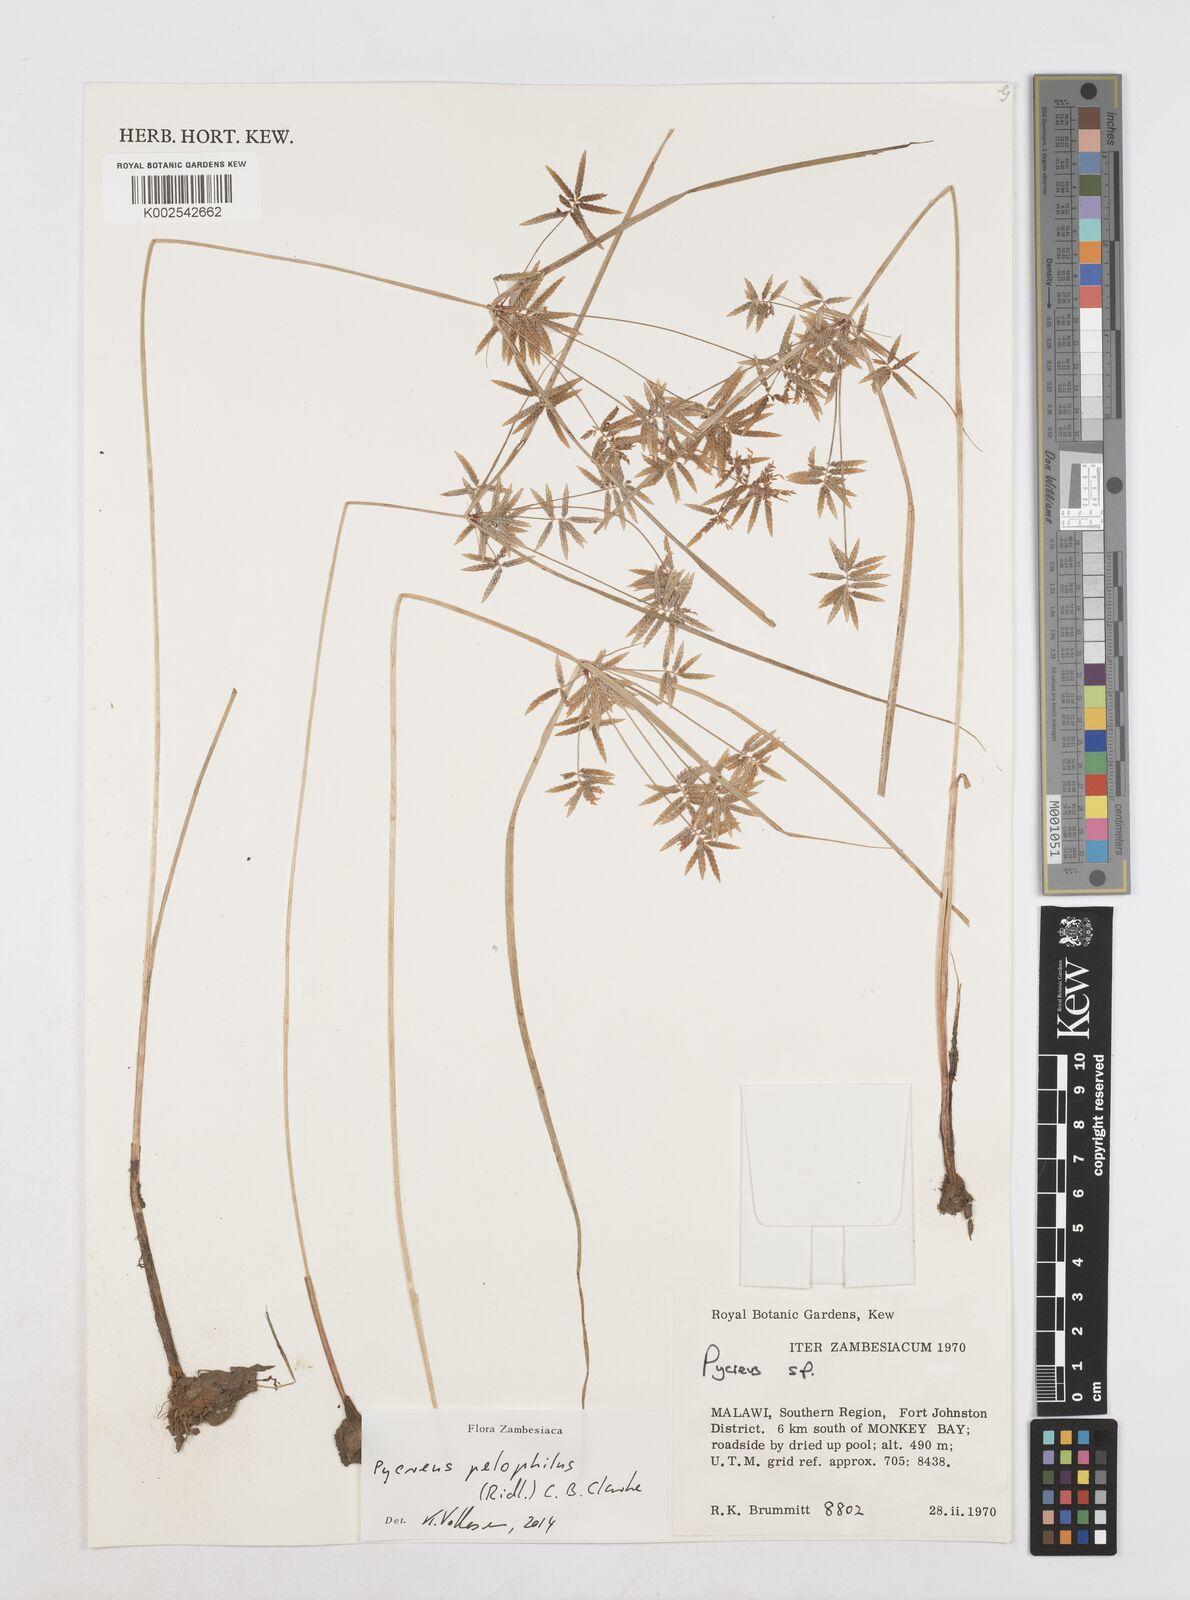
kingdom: Plantae
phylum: Tracheophyta
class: Liliopsida
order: Poales
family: Cyperaceae
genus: Cyperus
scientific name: Cyperus pelophilus
